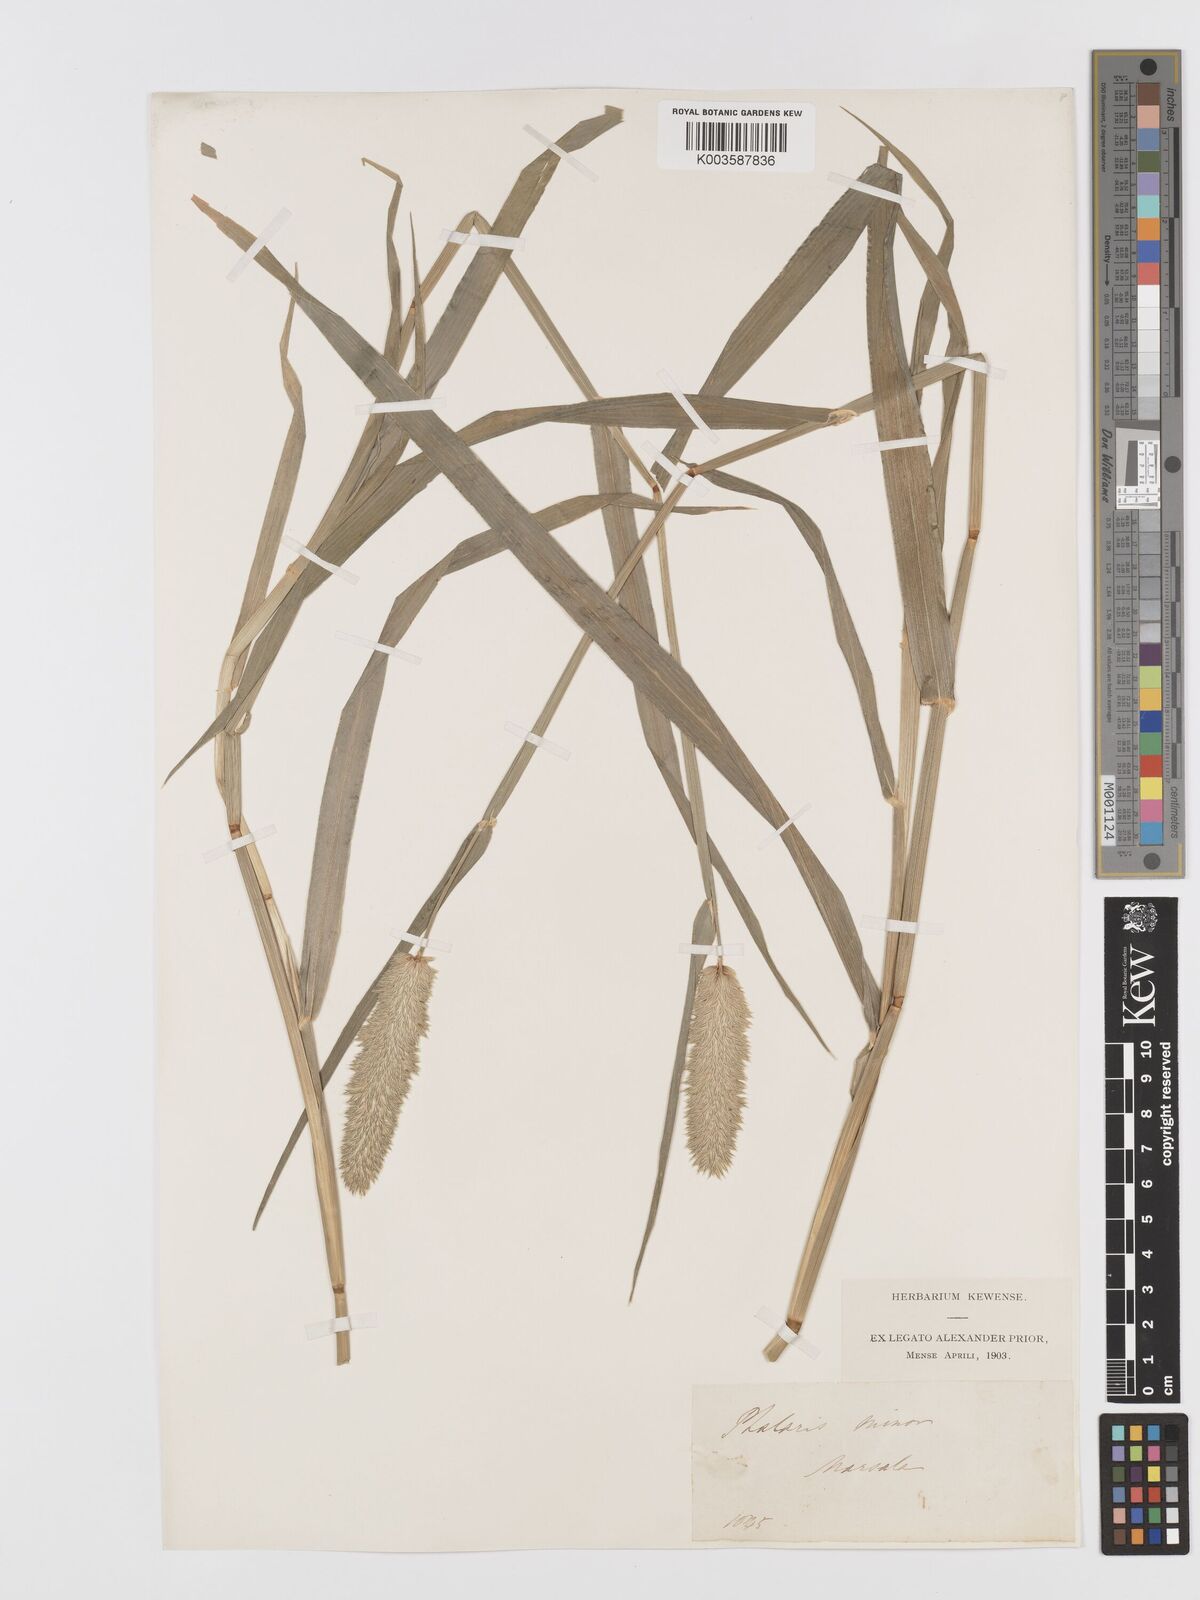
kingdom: Plantae
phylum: Tracheophyta
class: Liliopsida
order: Poales
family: Poaceae
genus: Phalaris
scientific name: Phalaris minor
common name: Littleseed canarygrass
